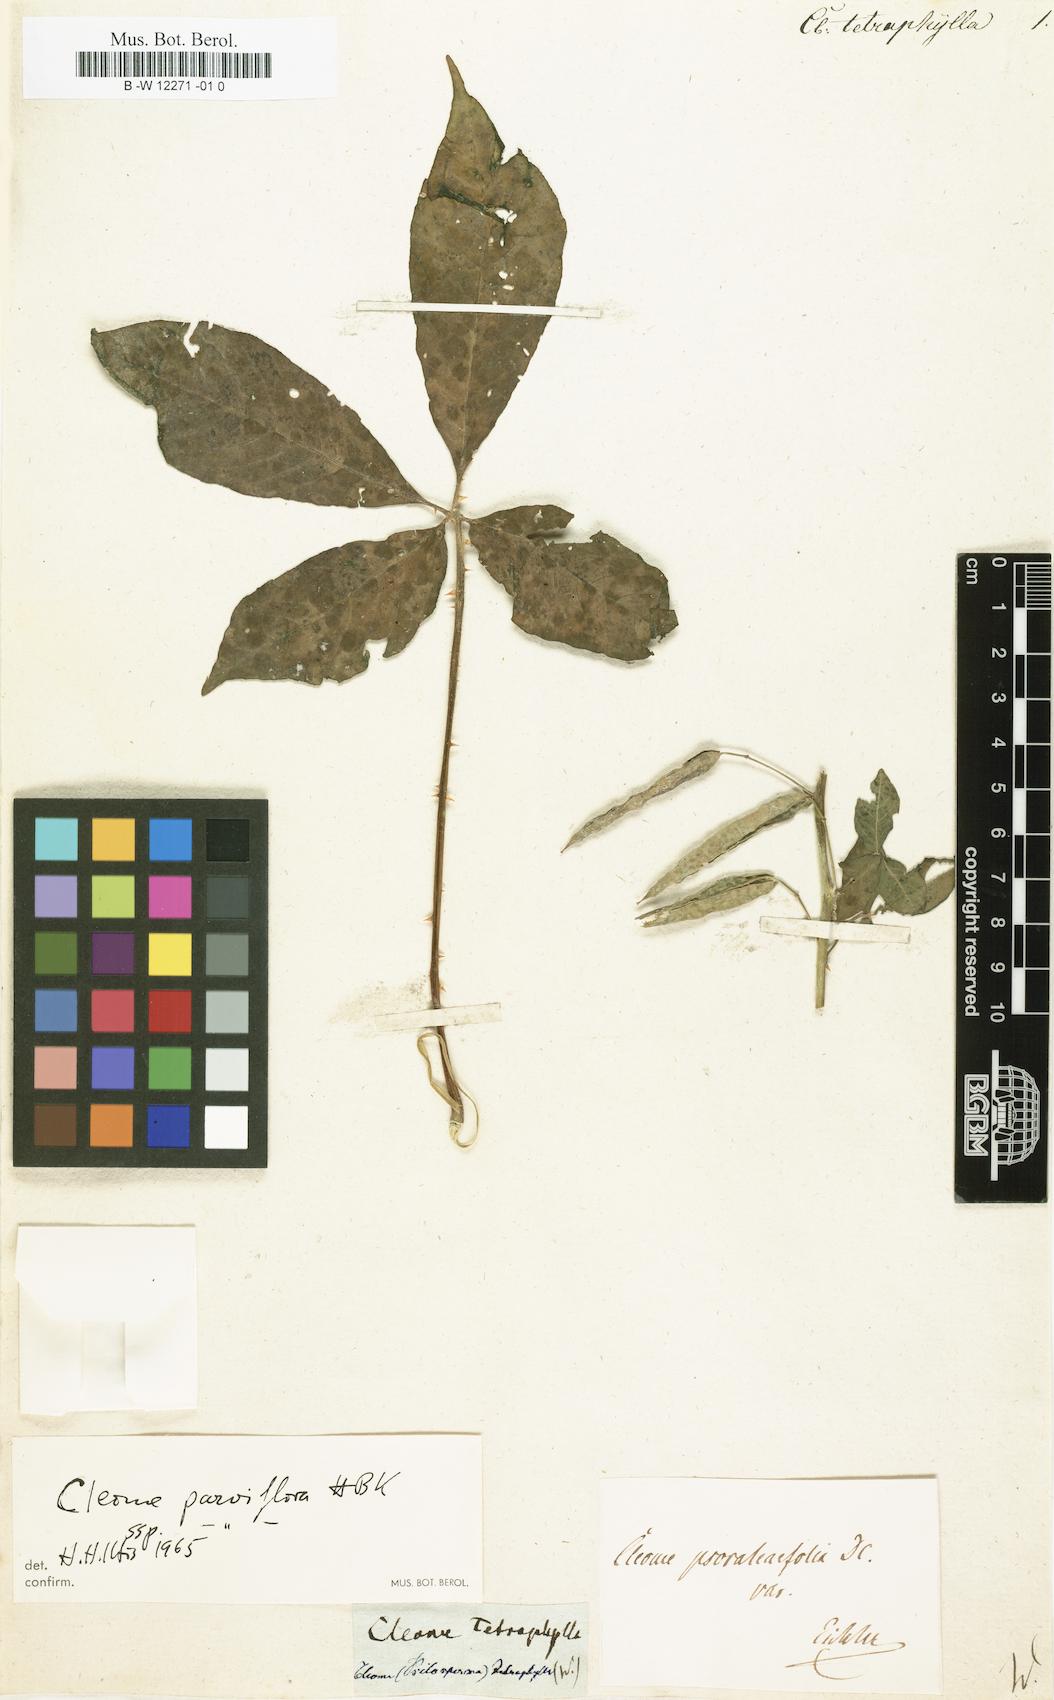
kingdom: Plantae
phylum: Tracheophyta
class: Magnoliopsida
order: Brassicales
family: Cleomaceae
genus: Tarenaya
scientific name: Tarenaya parviflora
